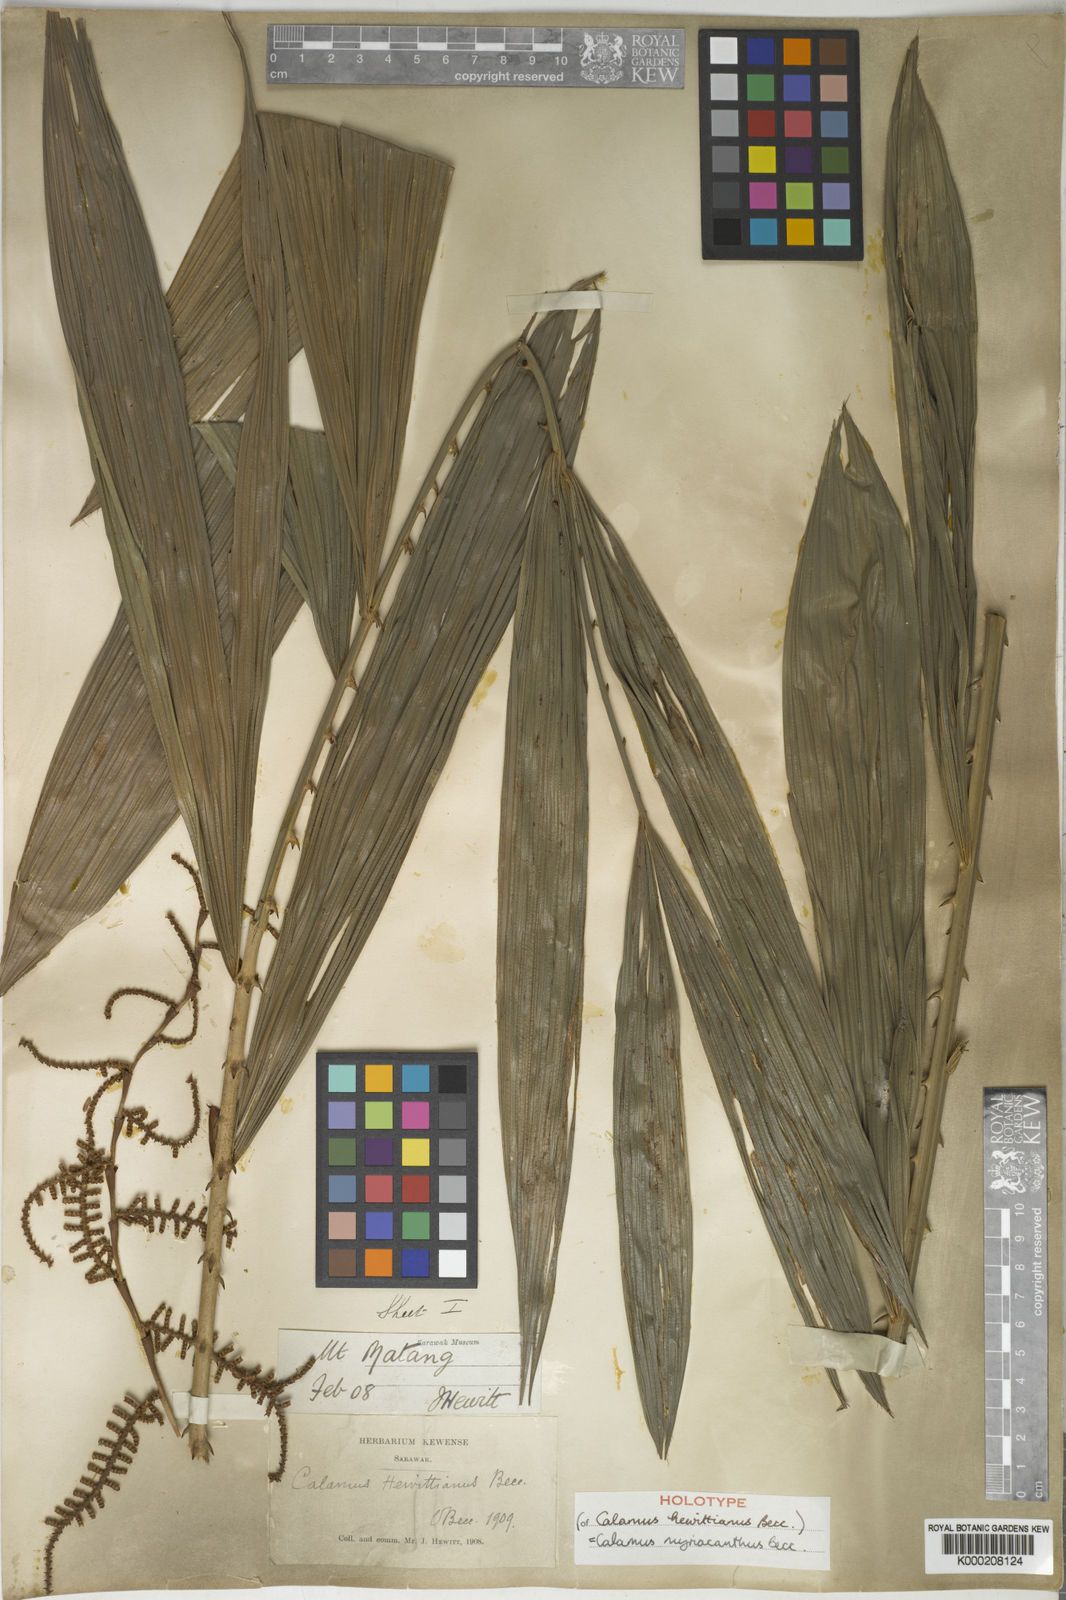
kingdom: Plantae
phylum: Tracheophyta
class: Liliopsida
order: Arecales
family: Arecaceae
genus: Calamus
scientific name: Calamus myriacanthus
